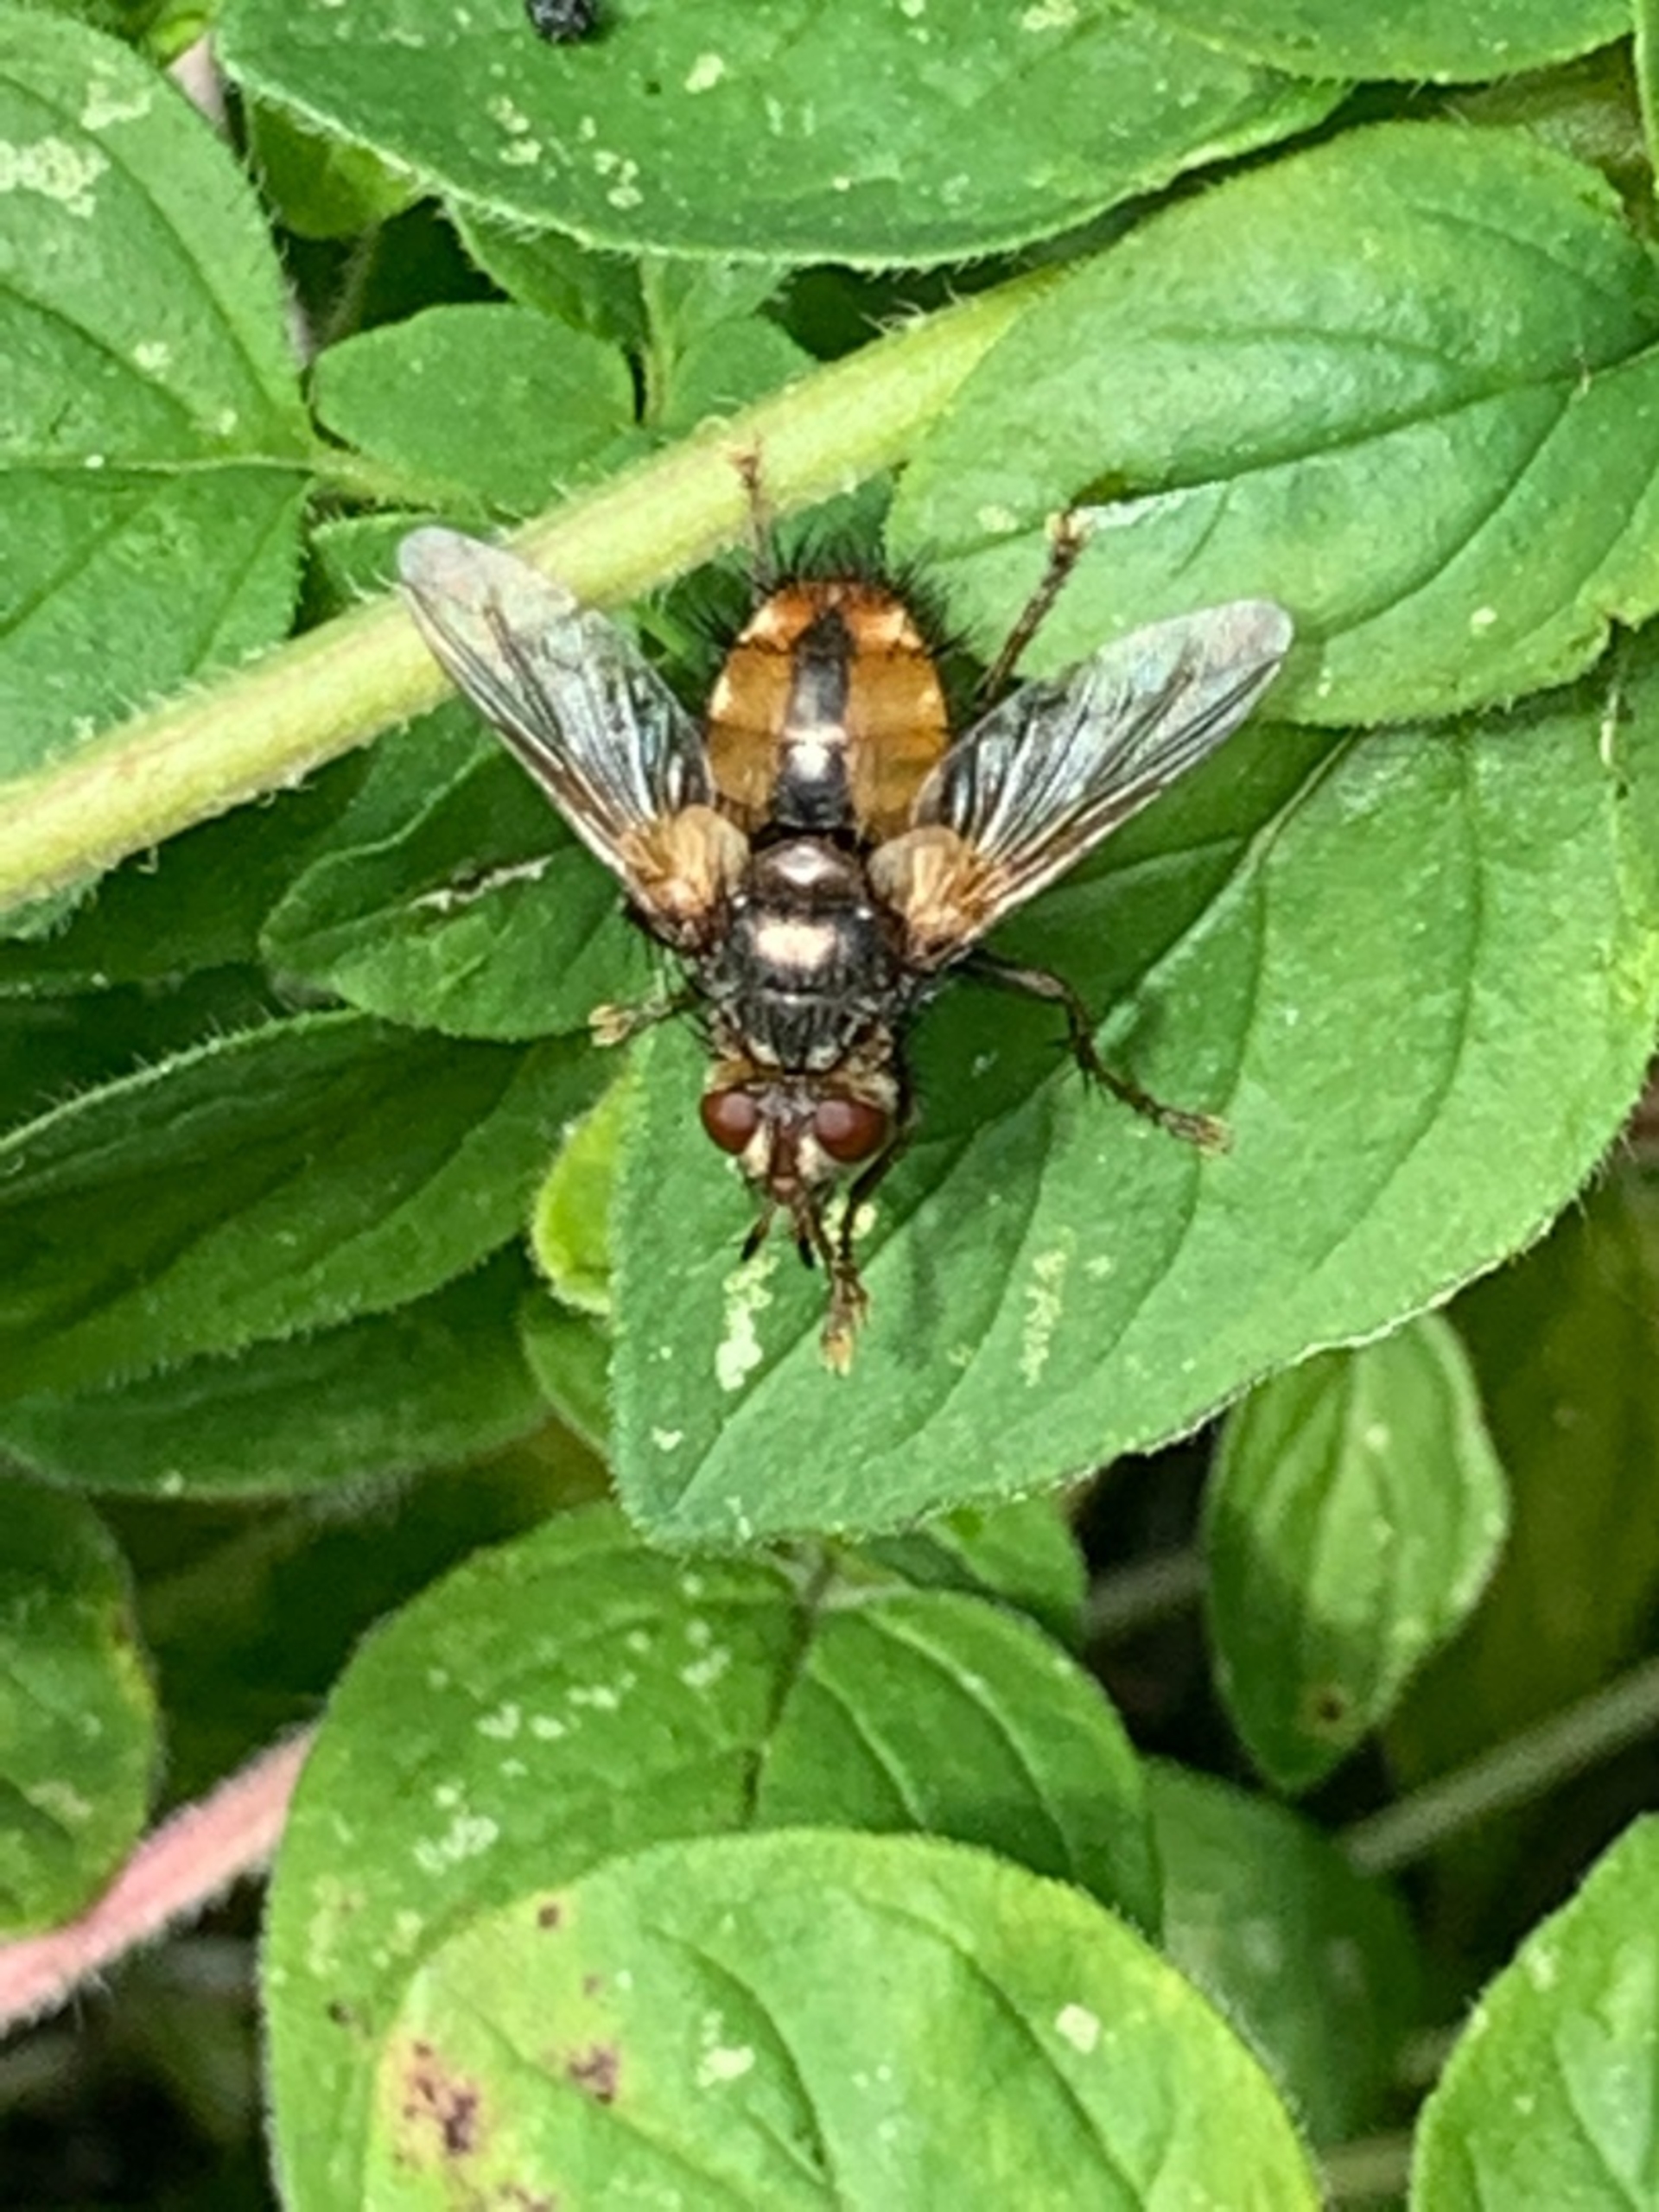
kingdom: Animalia
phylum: Arthropoda
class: Insecta
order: Diptera
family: Tachinidae
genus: Tachina
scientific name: Tachina fera
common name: Mellemfluen oskar
